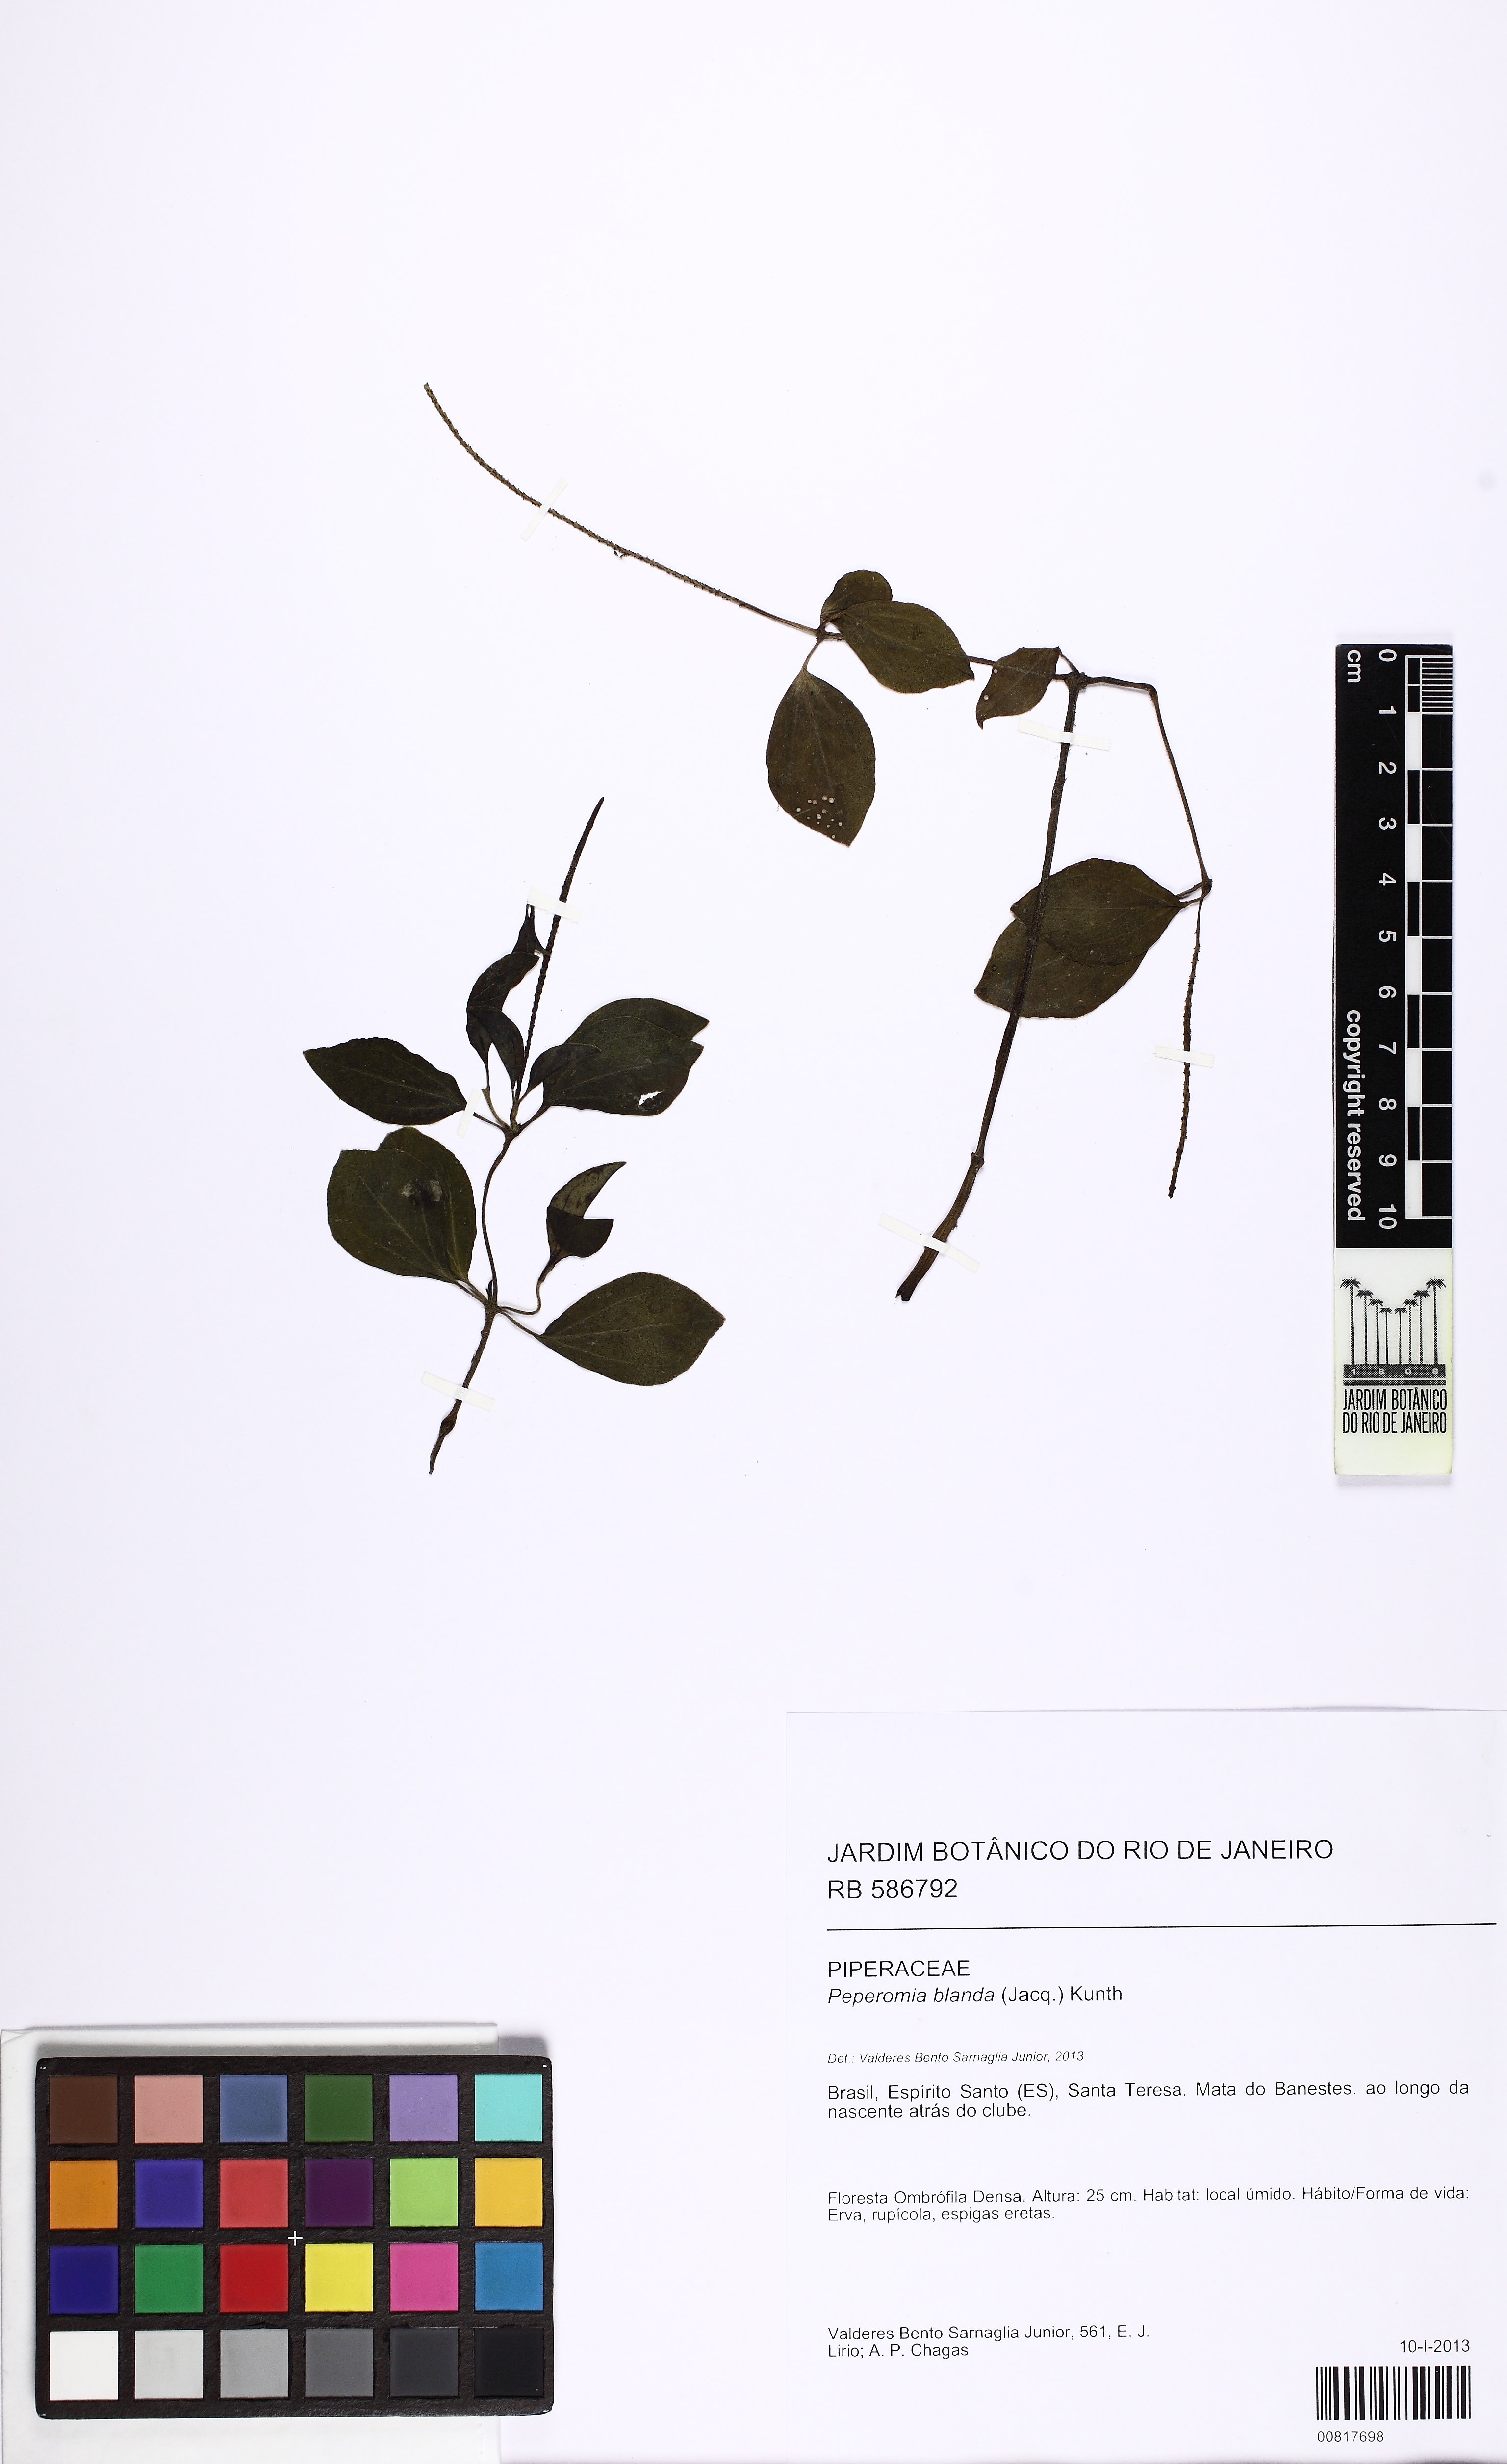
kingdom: Plantae
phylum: Tracheophyta
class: Magnoliopsida
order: Piperales
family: Piperaceae
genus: Peperomia
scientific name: Peperomia blanda
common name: Arid-land peperomia
